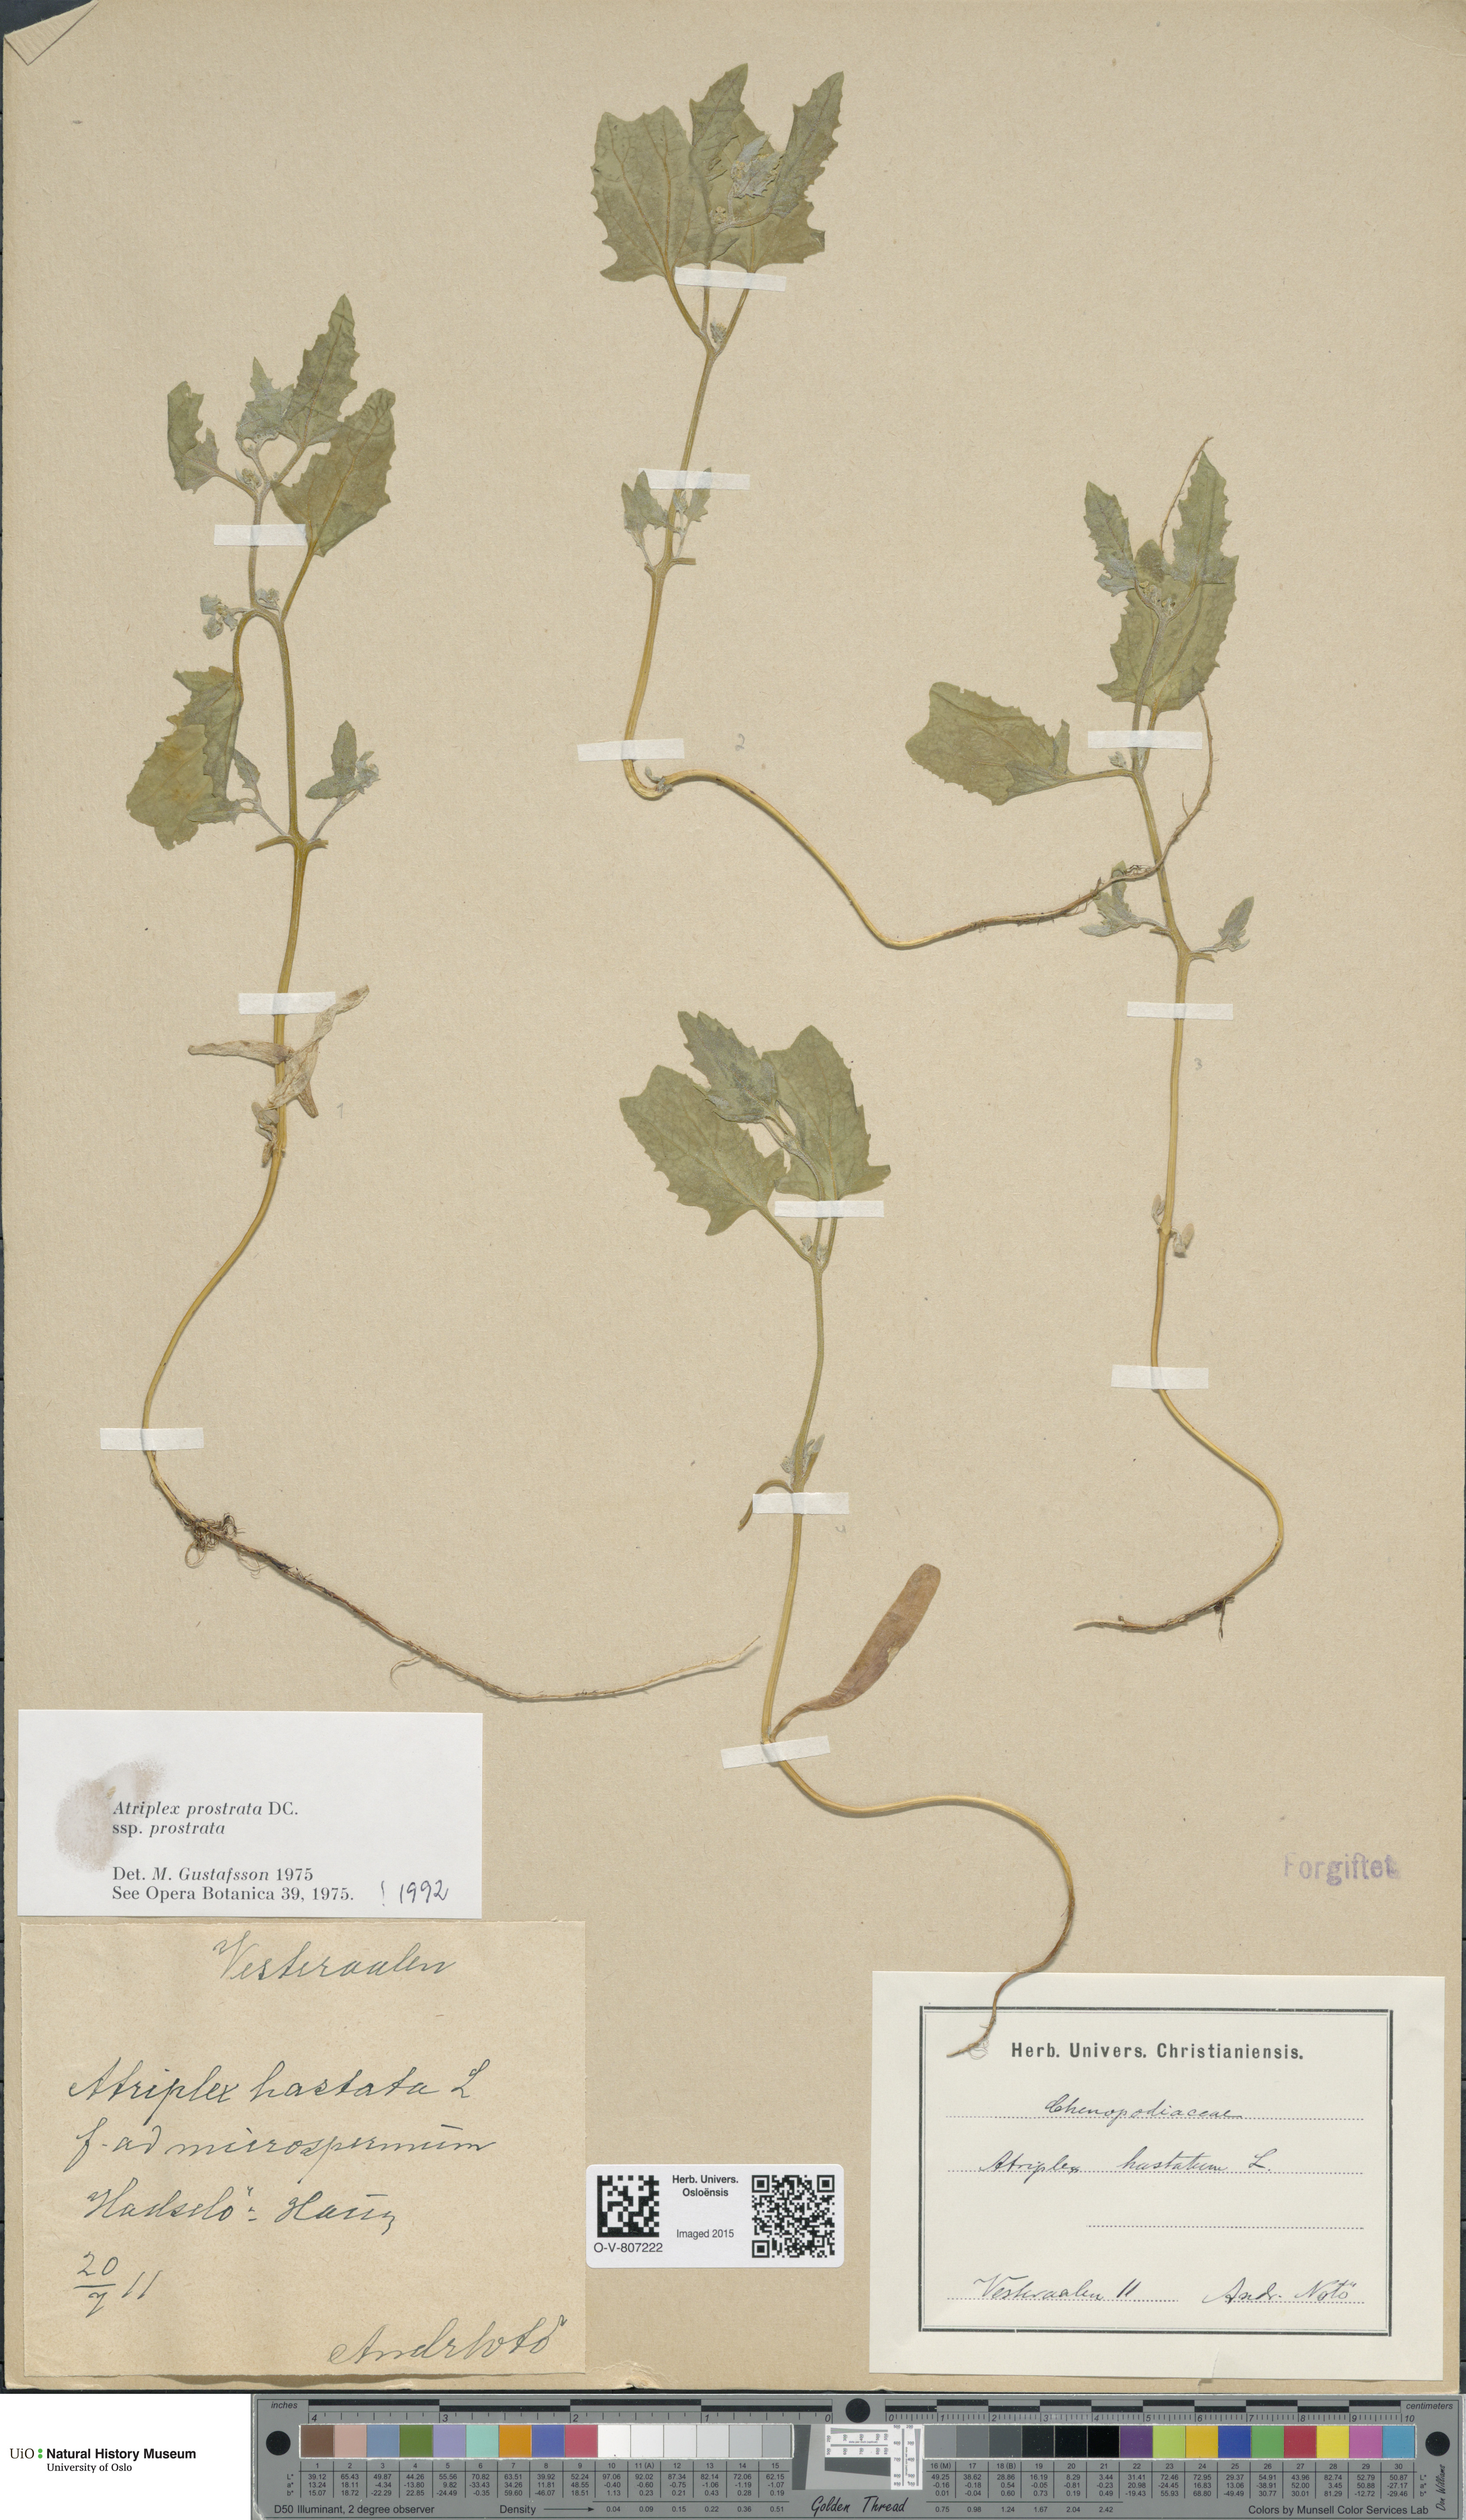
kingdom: Plantae
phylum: Tracheophyta
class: Magnoliopsida
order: Caryophyllales
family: Amaranthaceae
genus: Atriplex
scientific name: Atriplex prostrata
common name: Spear-leaved orache
